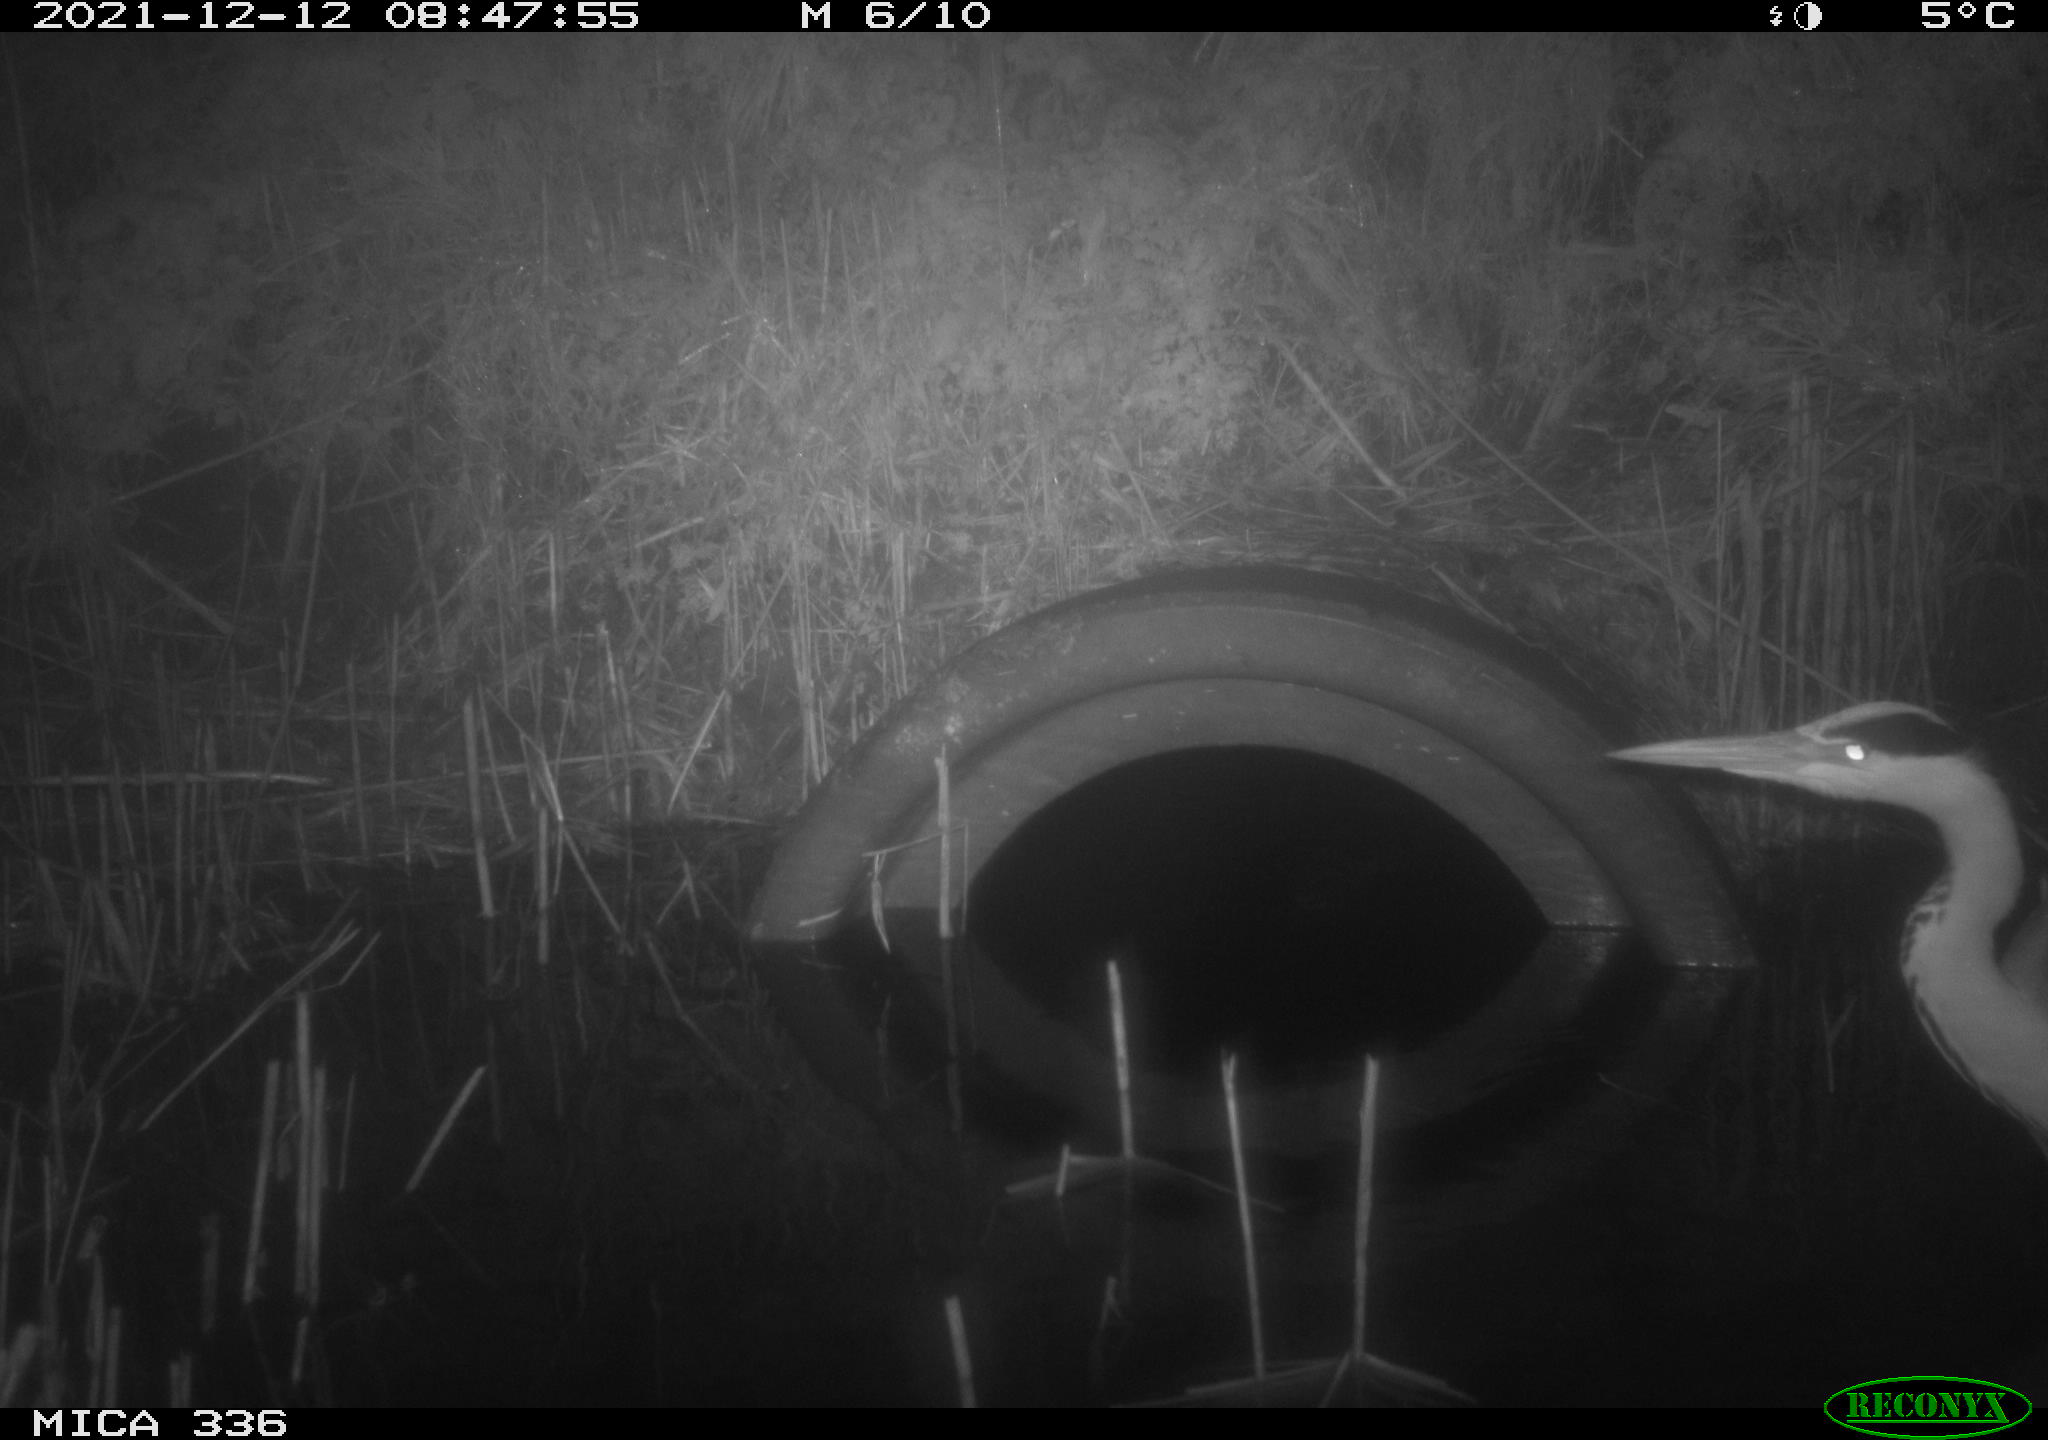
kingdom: Animalia
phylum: Chordata
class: Aves
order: Pelecaniformes
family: Ardeidae
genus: Ardea
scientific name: Ardea cinerea
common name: Grey heron
